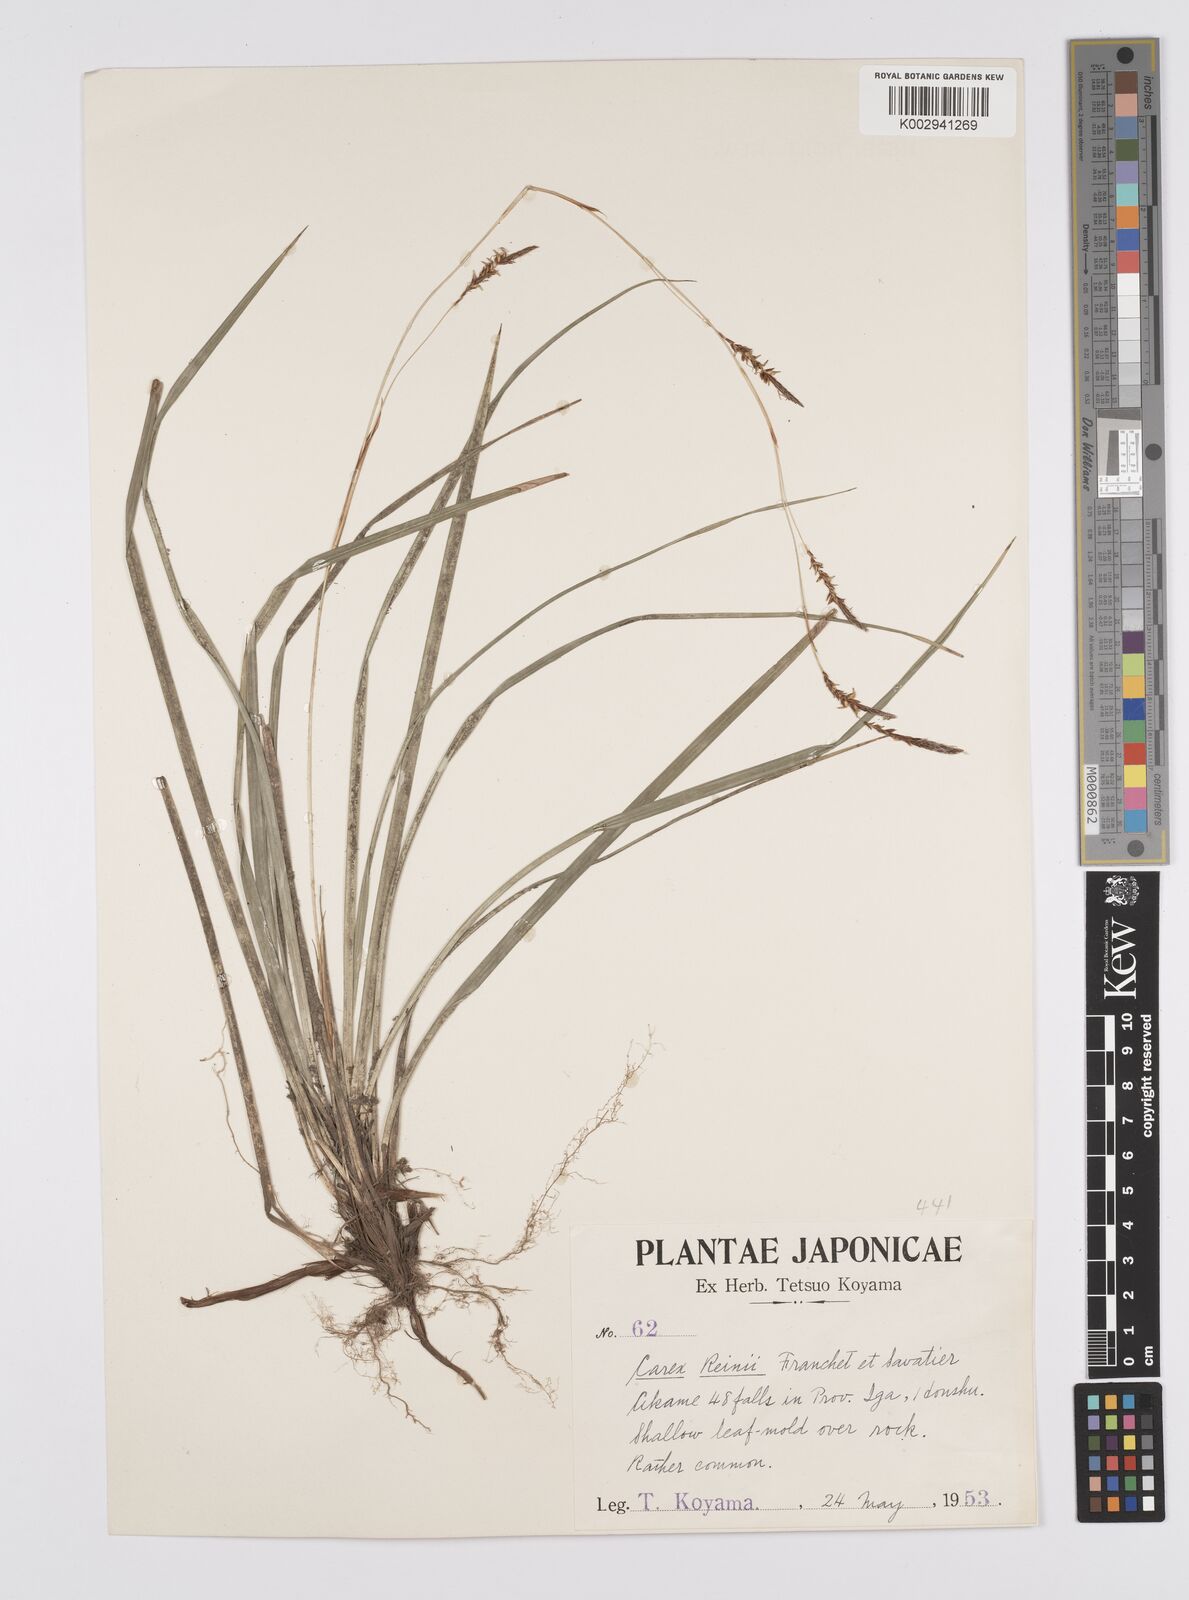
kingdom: Plantae
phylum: Tracheophyta
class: Liliopsida
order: Poales
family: Cyperaceae
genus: Carex
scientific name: Carex reinii
